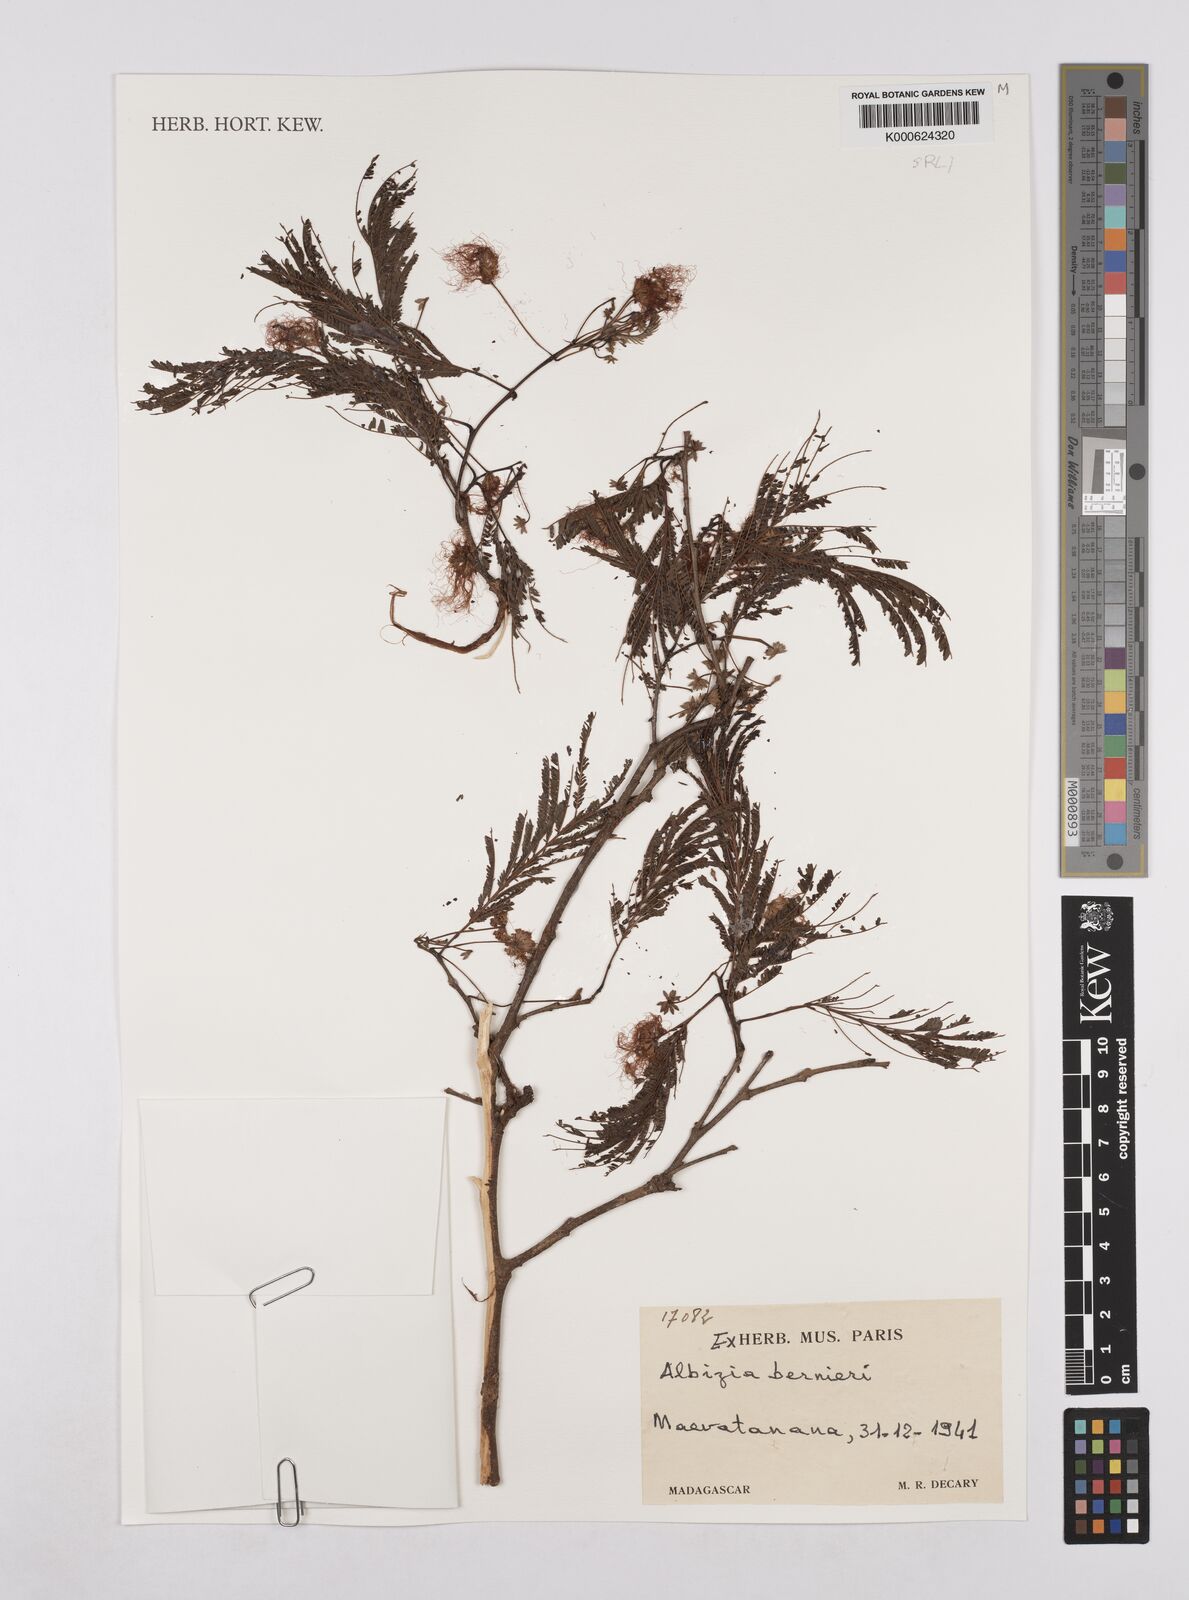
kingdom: Plantae
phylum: Tracheophyta
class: Magnoliopsida
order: Fabales
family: Fabaceae
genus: Albizia
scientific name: Albizia bernieri
